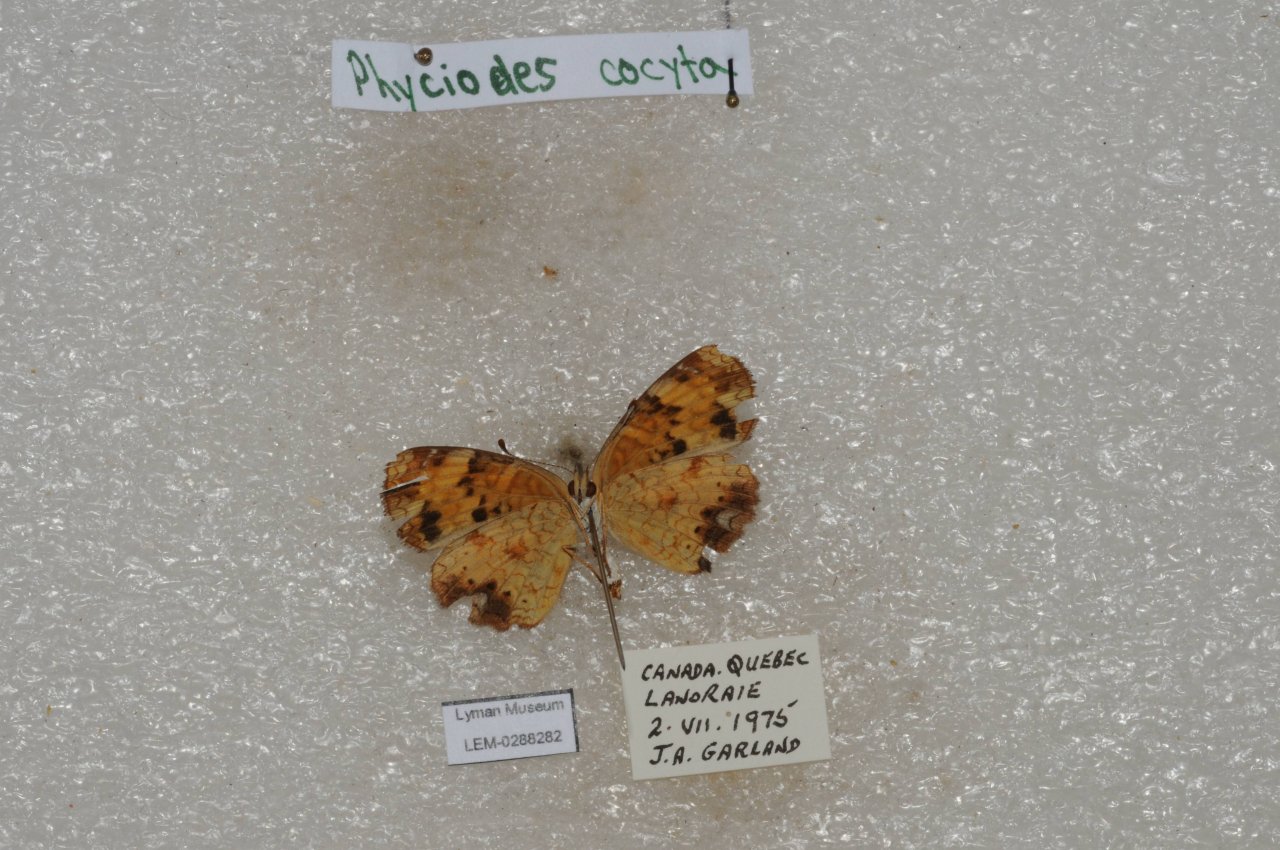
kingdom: Animalia
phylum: Arthropoda
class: Insecta
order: Lepidoptera
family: Nymphalidae
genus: Phyciodes
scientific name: Phyciodes tharos
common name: Northern Crescent
